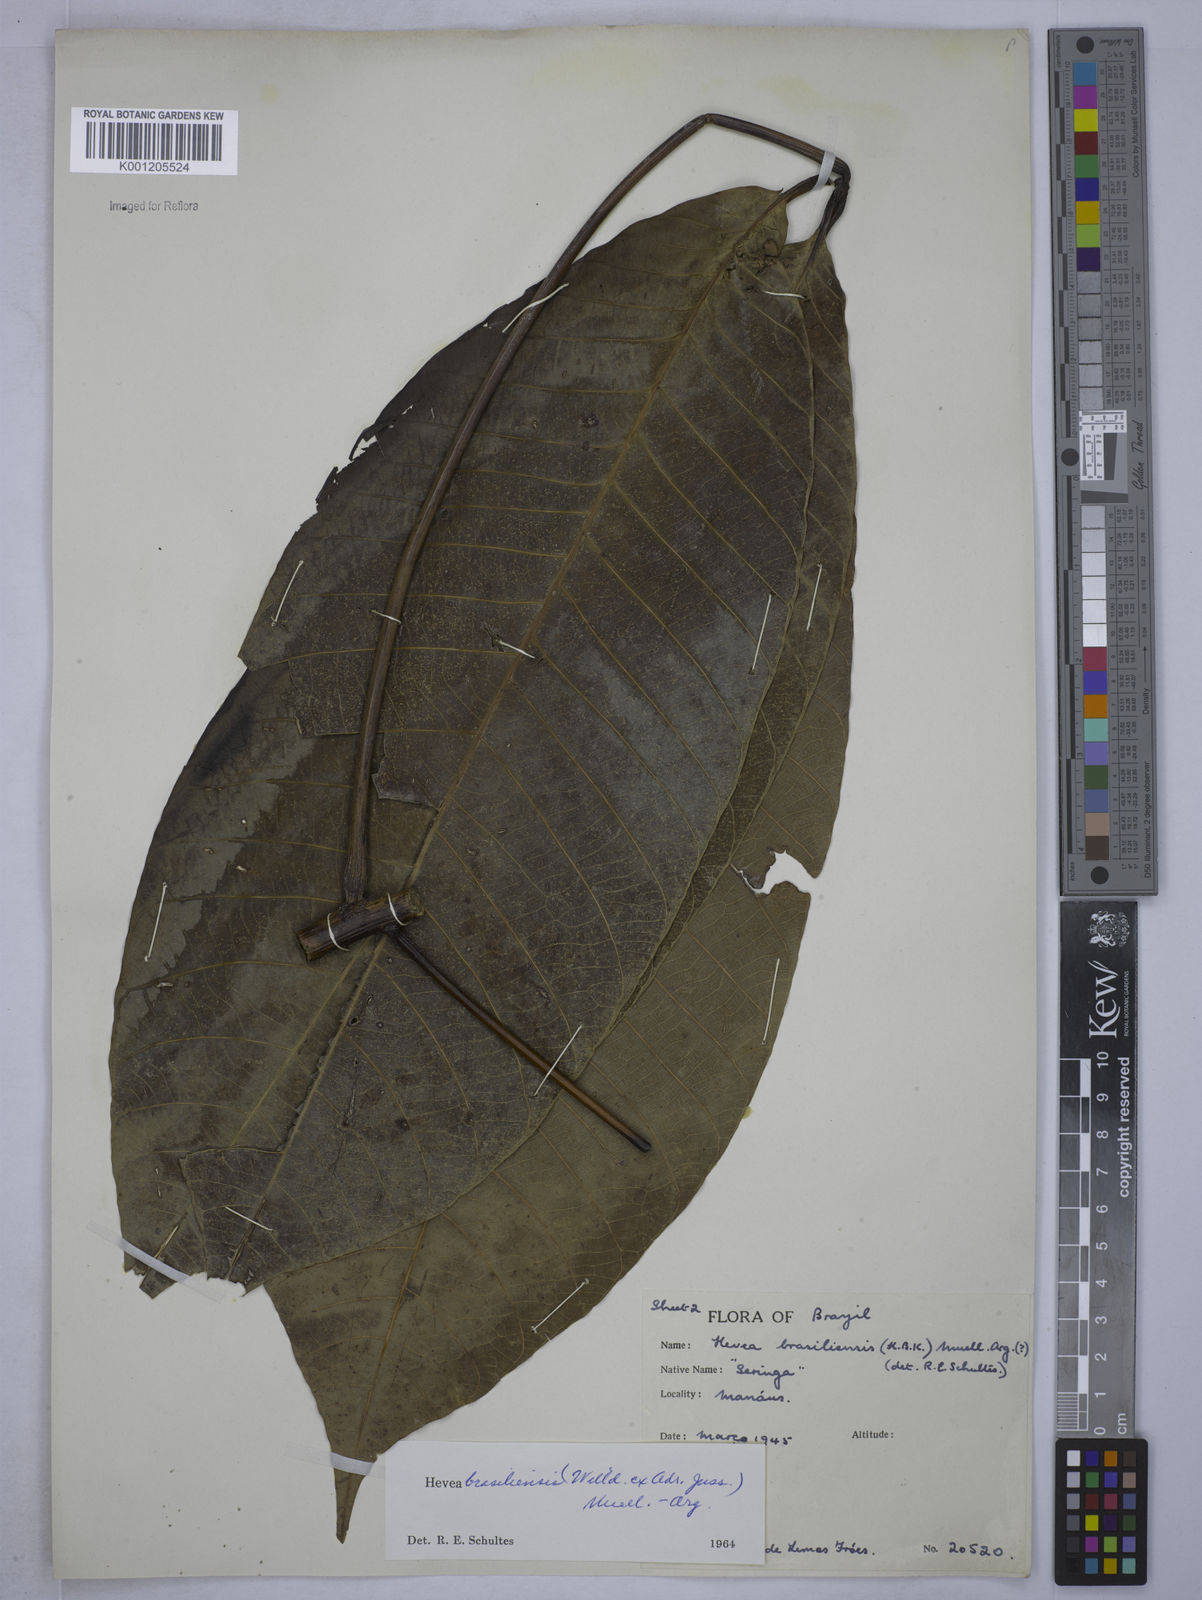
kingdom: Plantae
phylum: Tracheophyta
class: Magnoliopsida
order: Malpighiales
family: Euphorbiaceae
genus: Hevea
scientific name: Hevea
